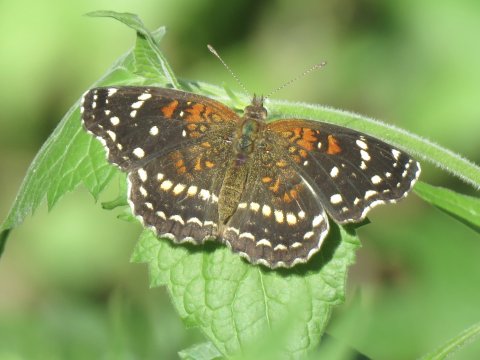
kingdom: Animalia
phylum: Arthropoda
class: Insecta
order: Lepidoptera
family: Nymphalidae
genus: Anthanassa
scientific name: Anthanassa texana
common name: Texan Crescent
